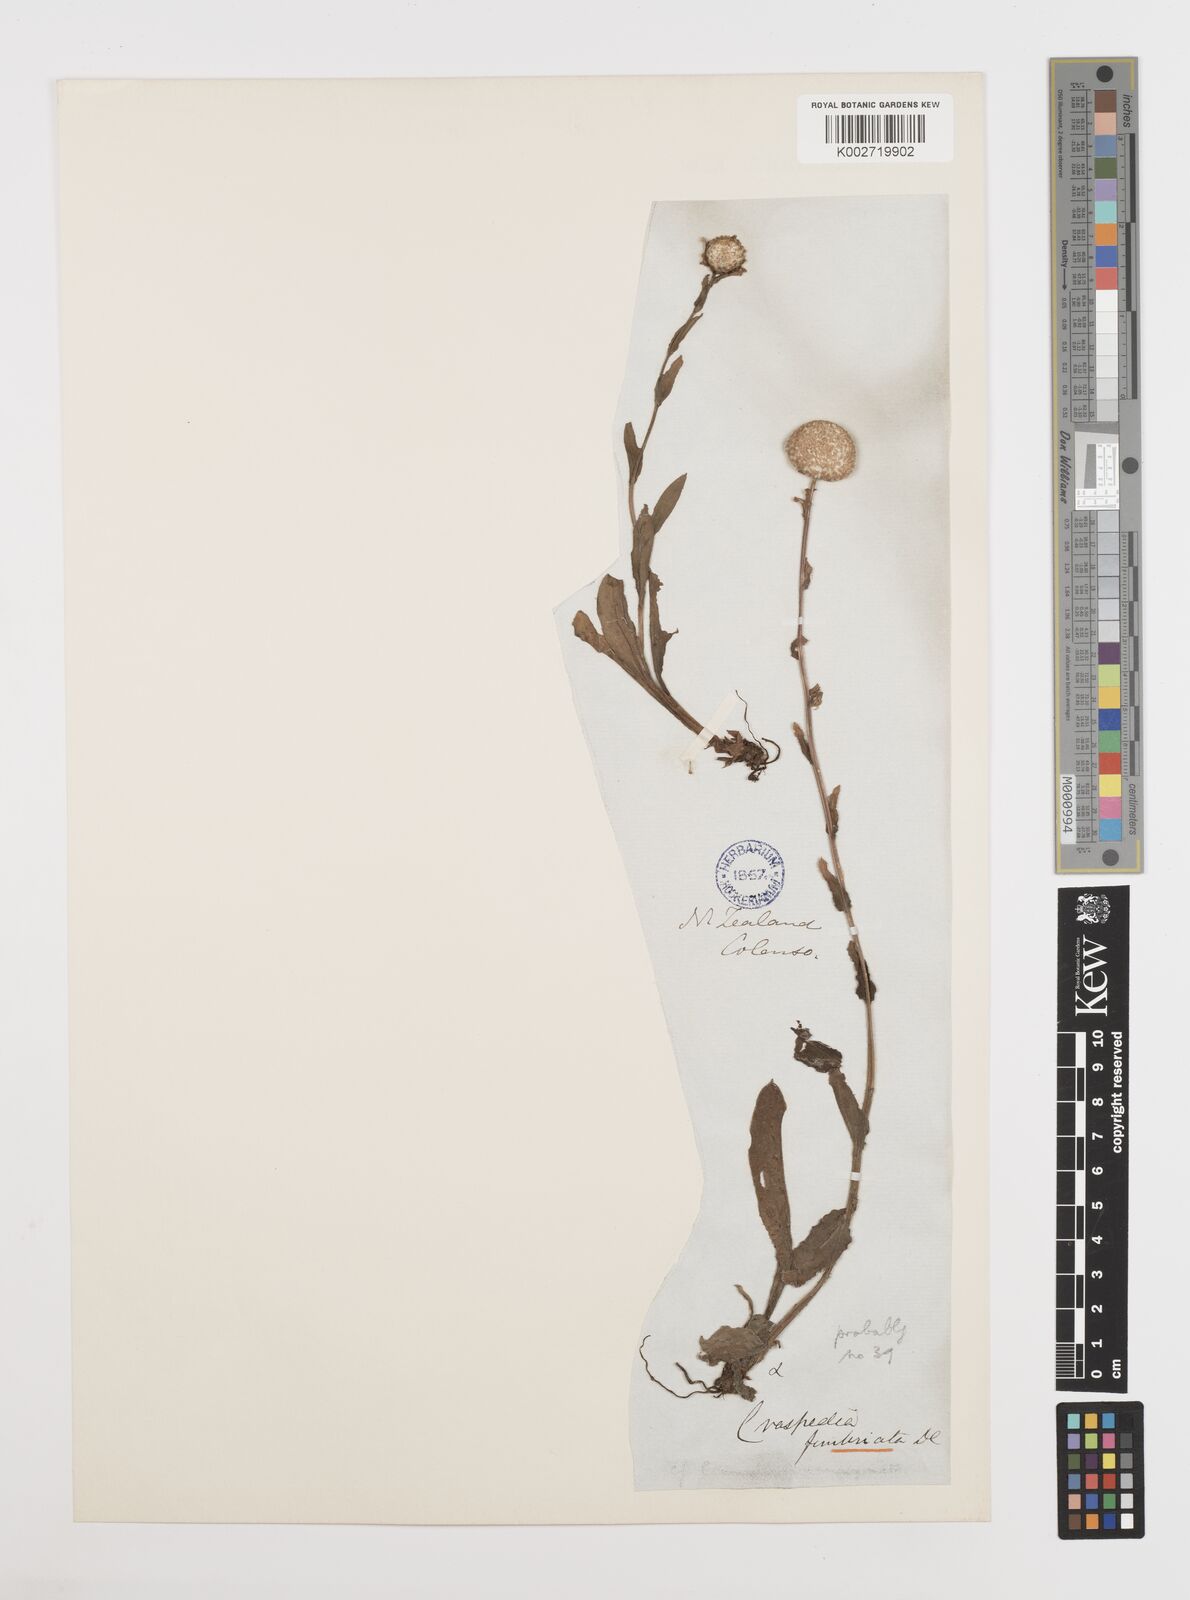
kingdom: Plantae
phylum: Tracheophyta
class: Magnoliopsida
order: Asterales
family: Asteraceae
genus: Craspedia
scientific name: Craspedia uniflora
